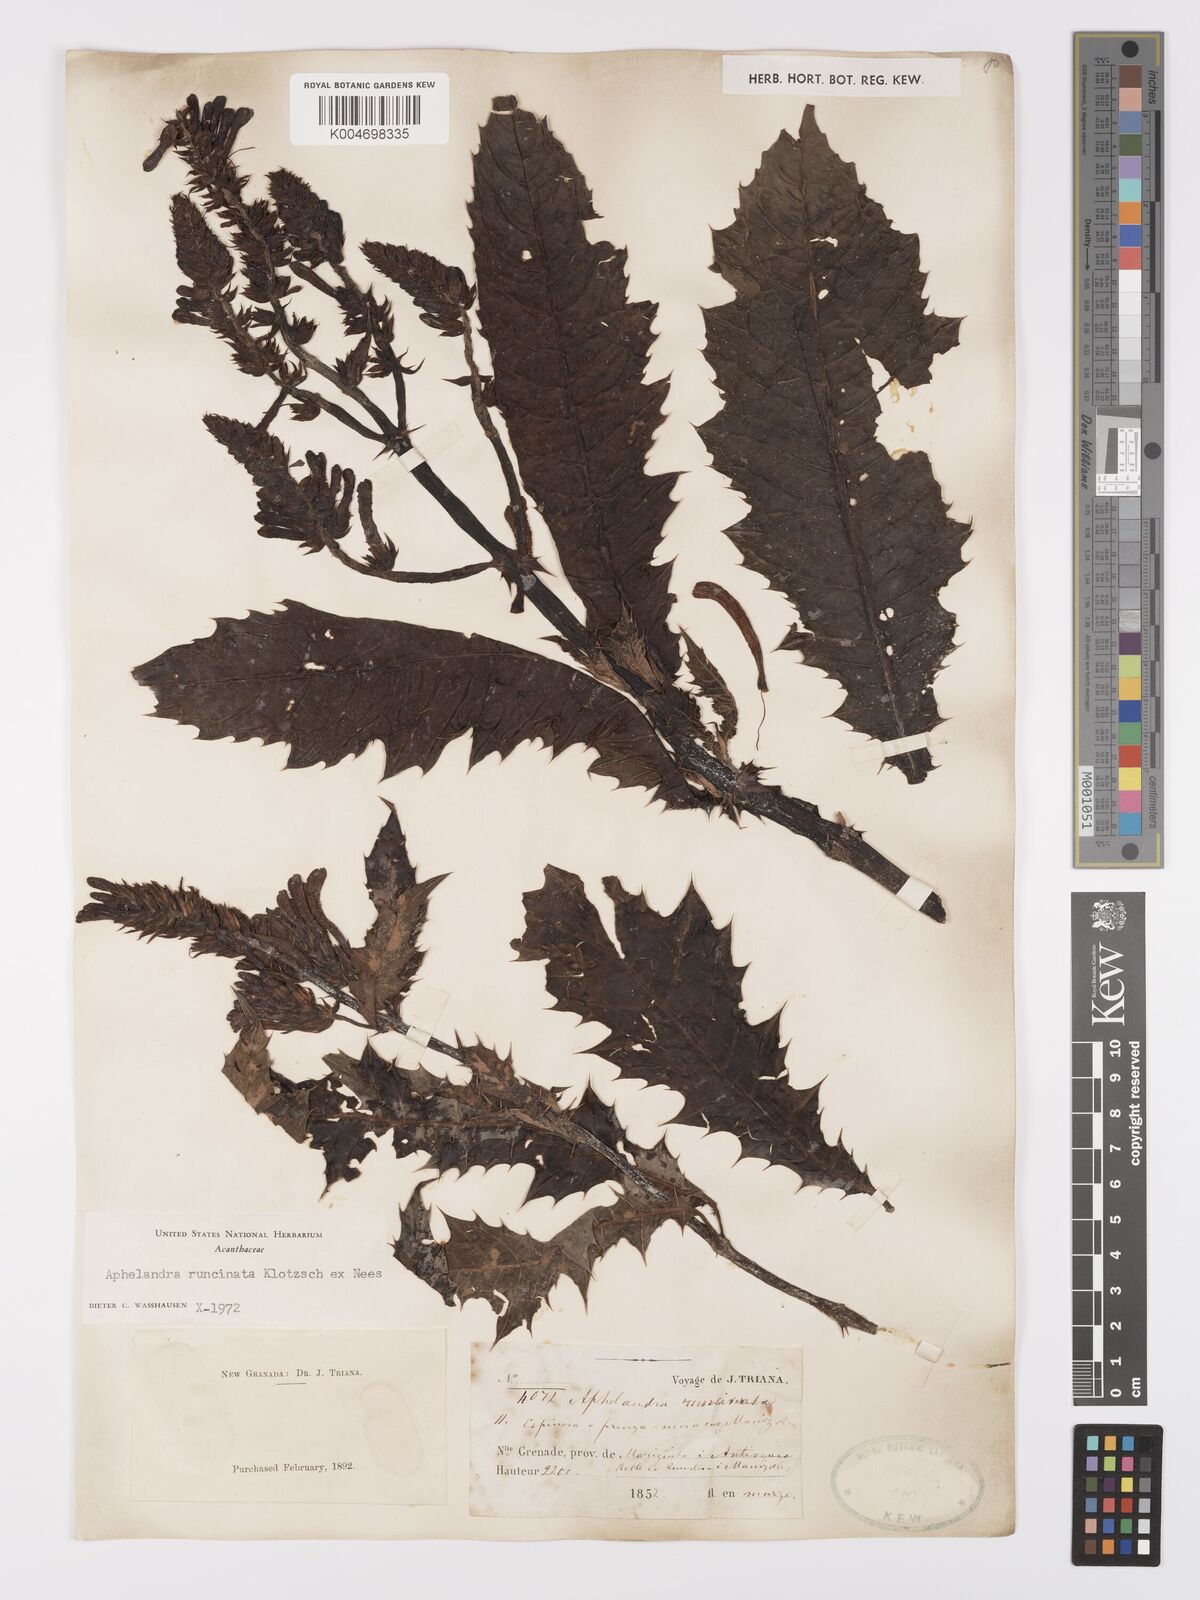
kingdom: Plantae
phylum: Tracheophyta
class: Magnoliopsida
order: Lamiales
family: Acanthaceae
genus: Aphelandra
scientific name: Aphelandra runcinata
